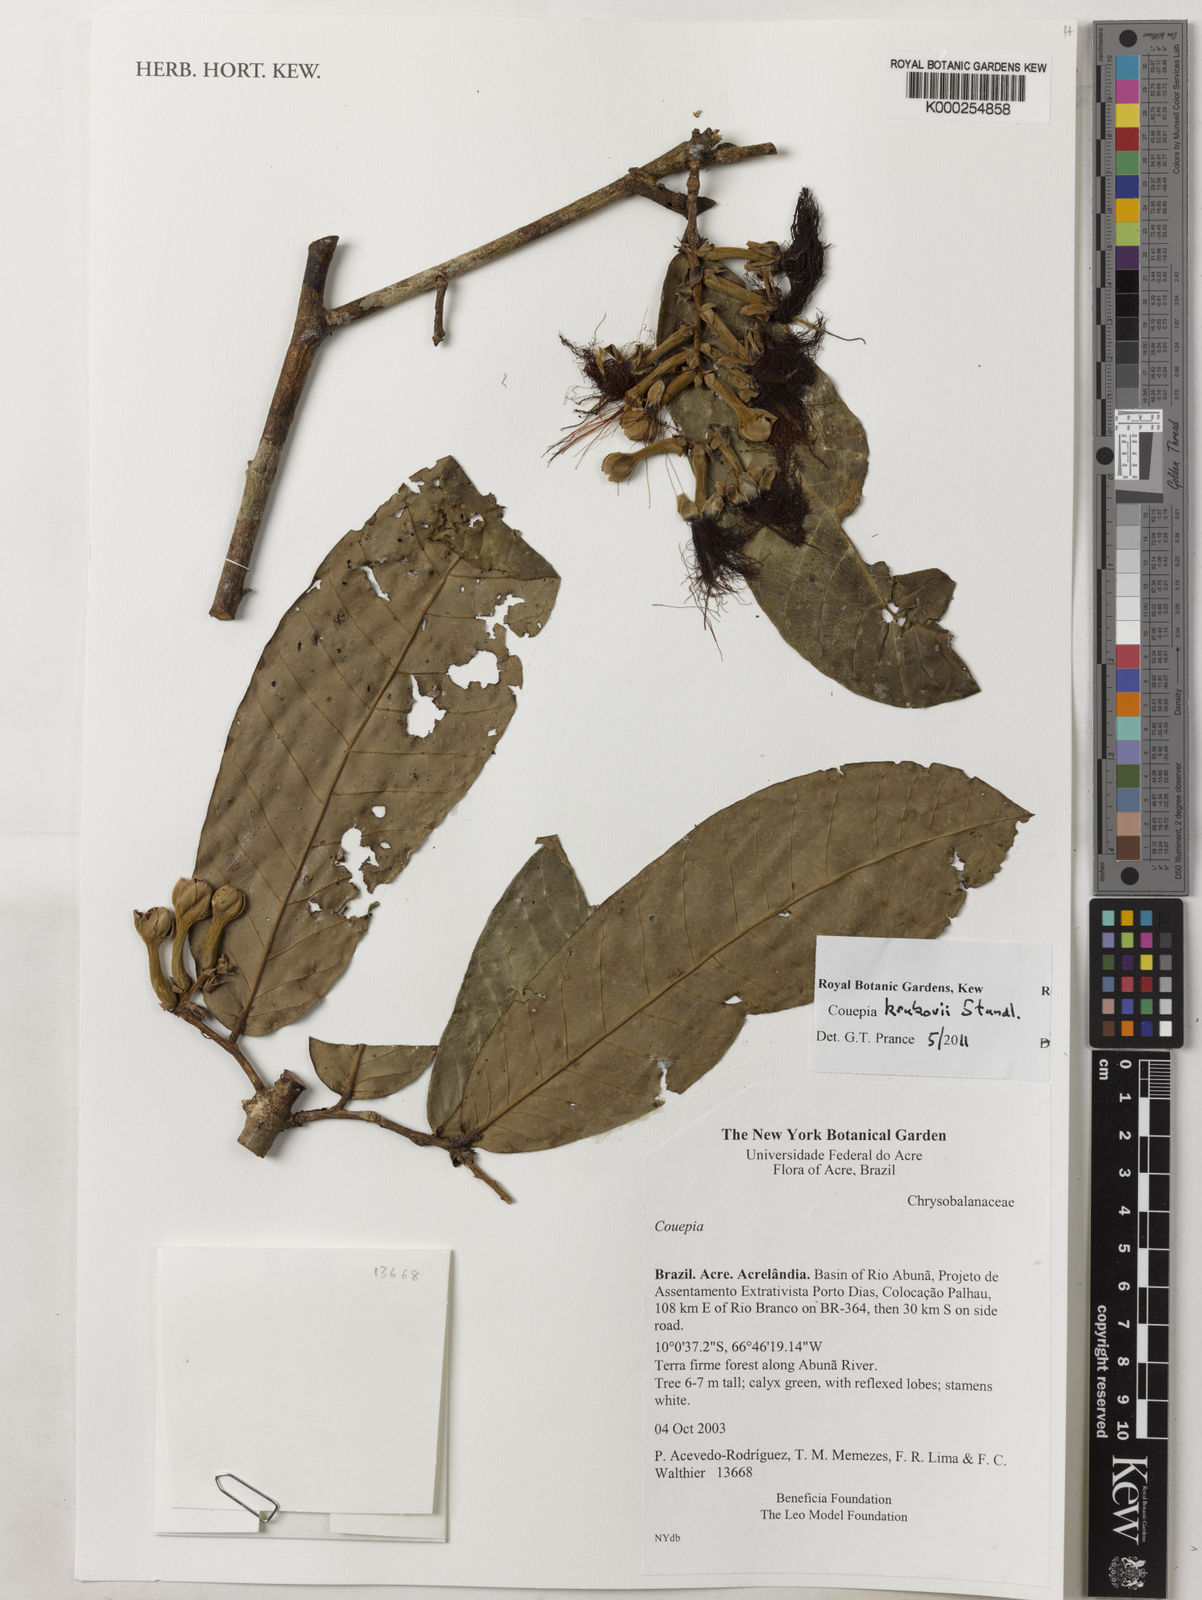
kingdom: Plantae
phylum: Tracheophyta
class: Magnoliopsida
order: Malpighiales
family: Chrysobalanaceae
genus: Couepia
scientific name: Couepia krukovii
